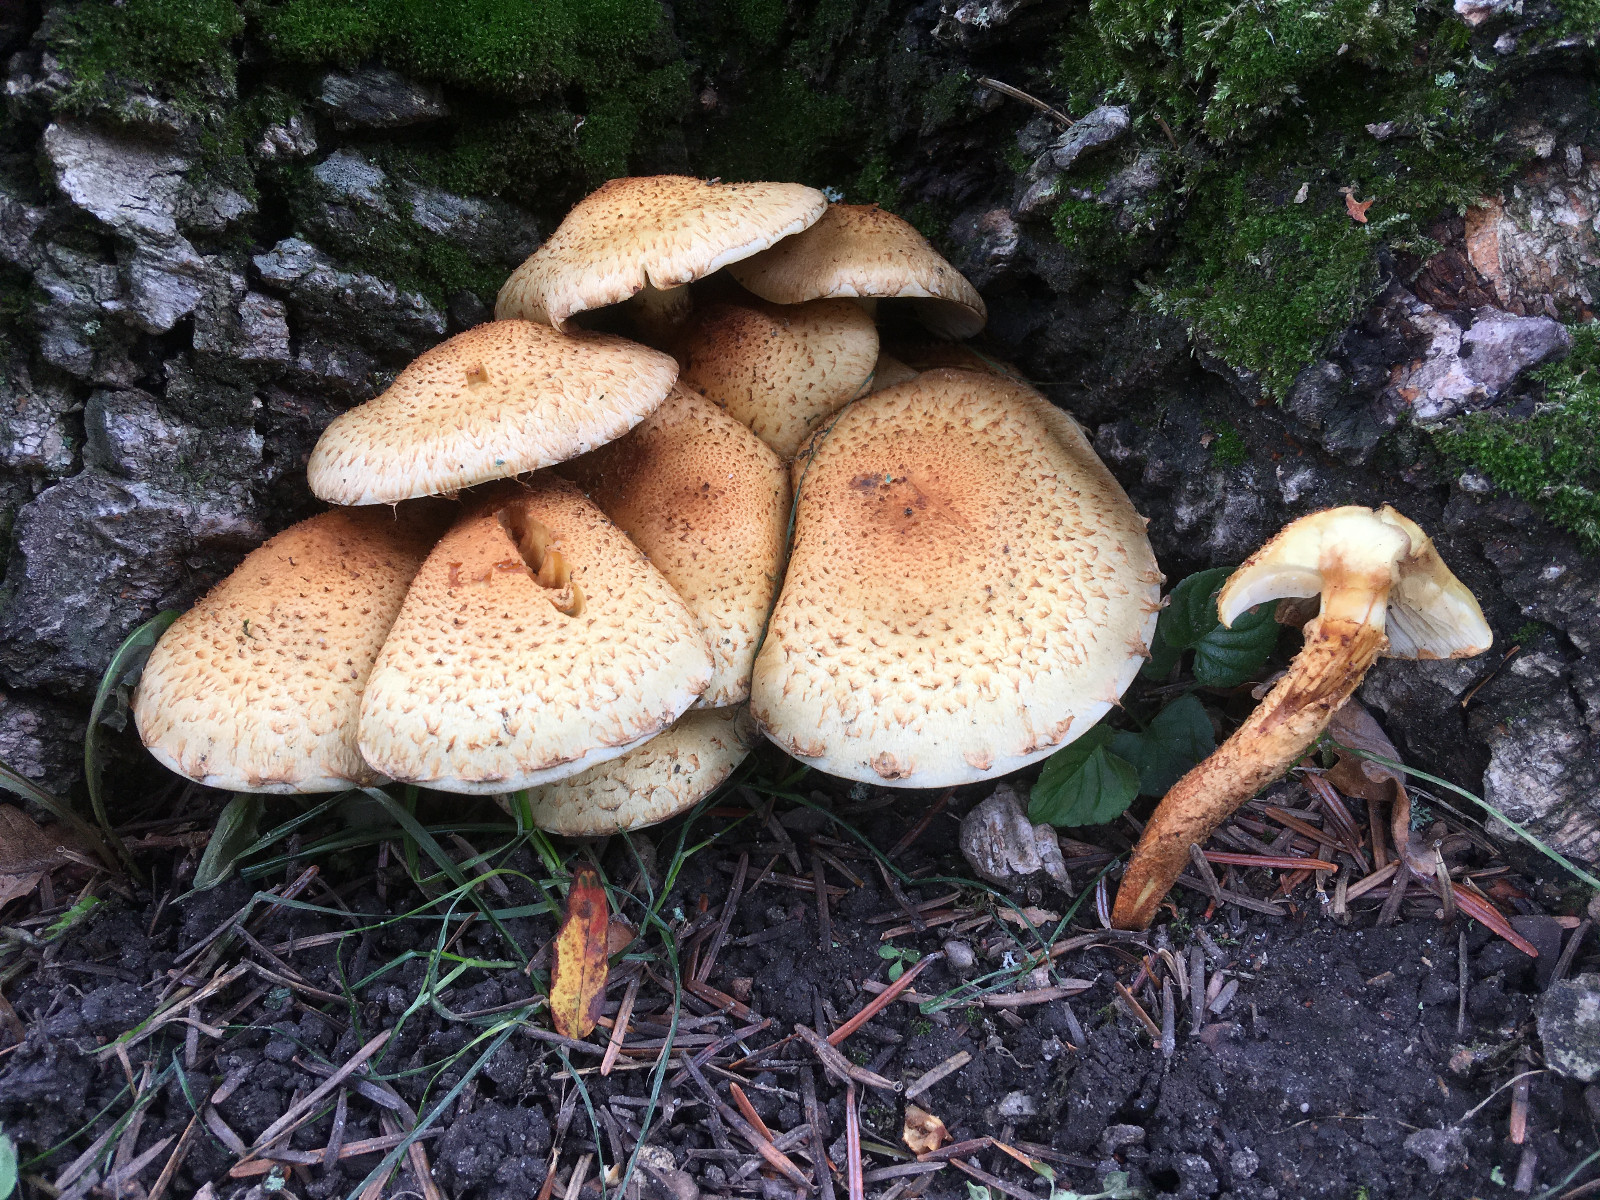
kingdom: Fungi
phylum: Basidiomycota
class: Agaricomycetes
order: Agaricales
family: Strophariaceae
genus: Pholiota
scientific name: Pholiota squarrosa
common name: krumskællet skælhat
